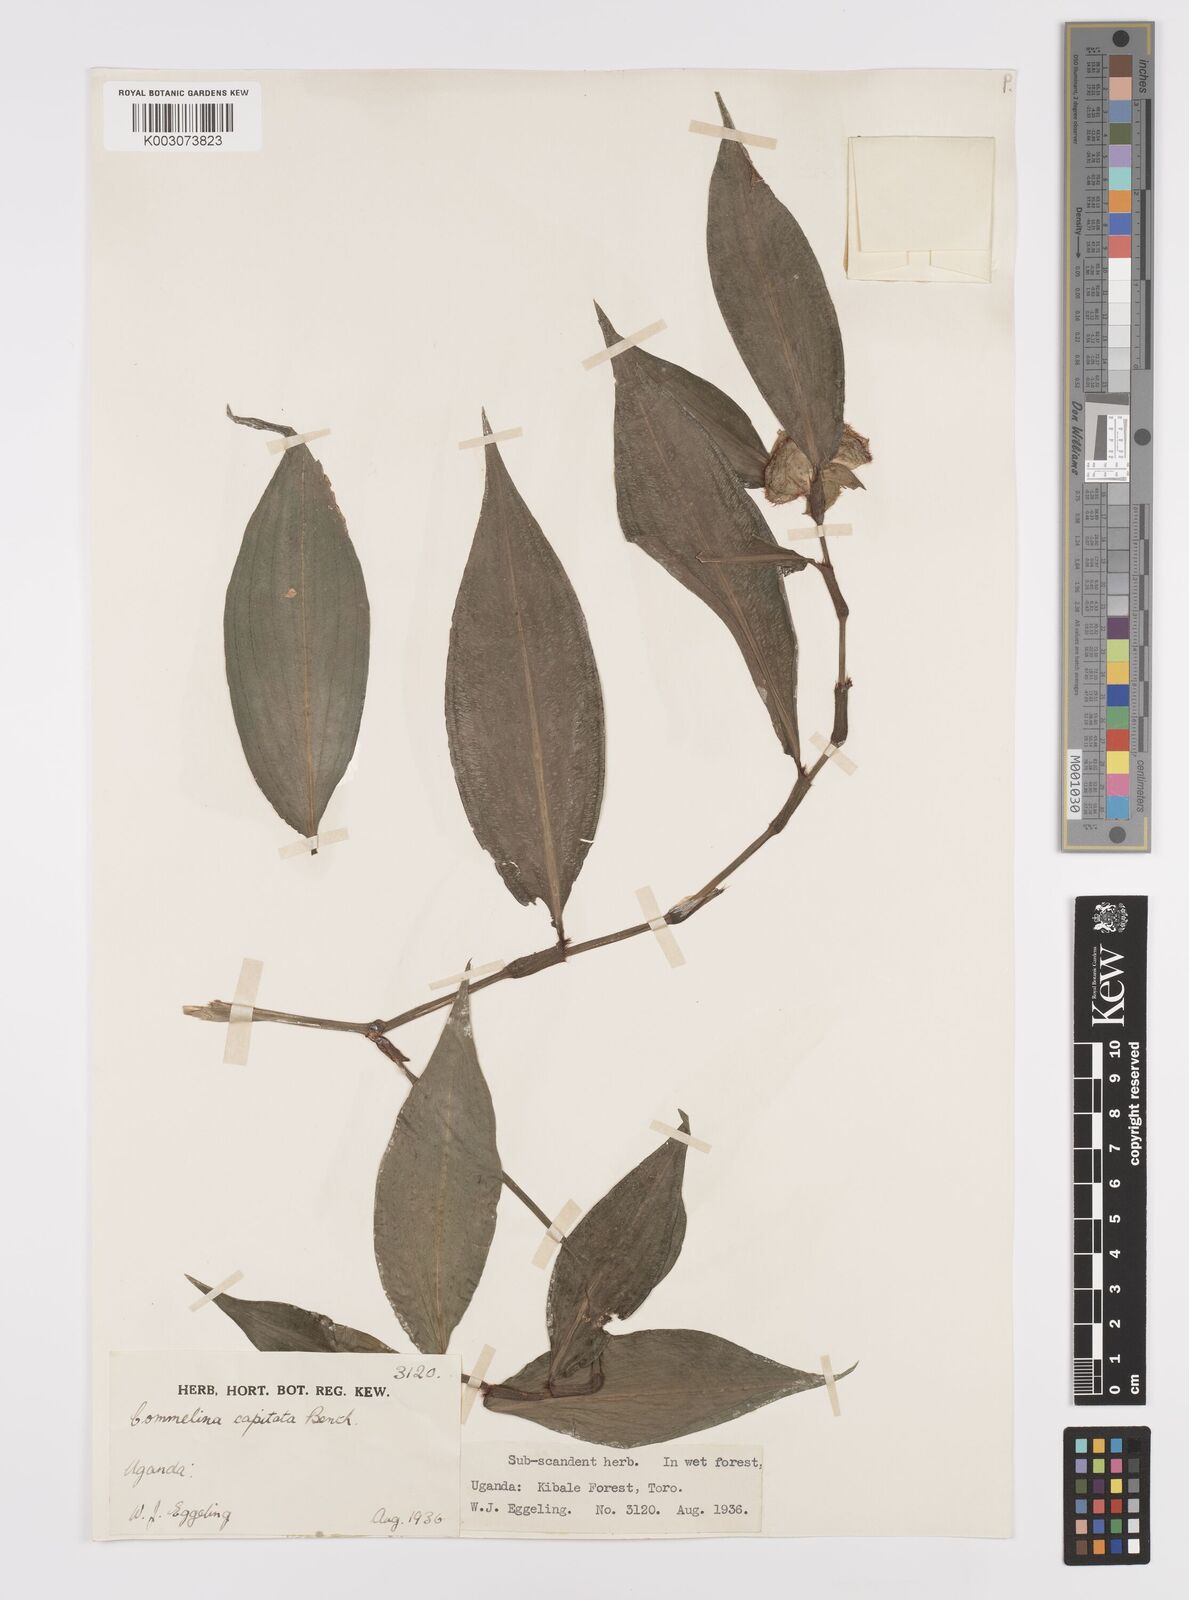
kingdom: Plantae
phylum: Tracheophyta
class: Liliopsida
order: Commelinales
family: Commelinaceae
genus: Commelina
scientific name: Commelina capitata
